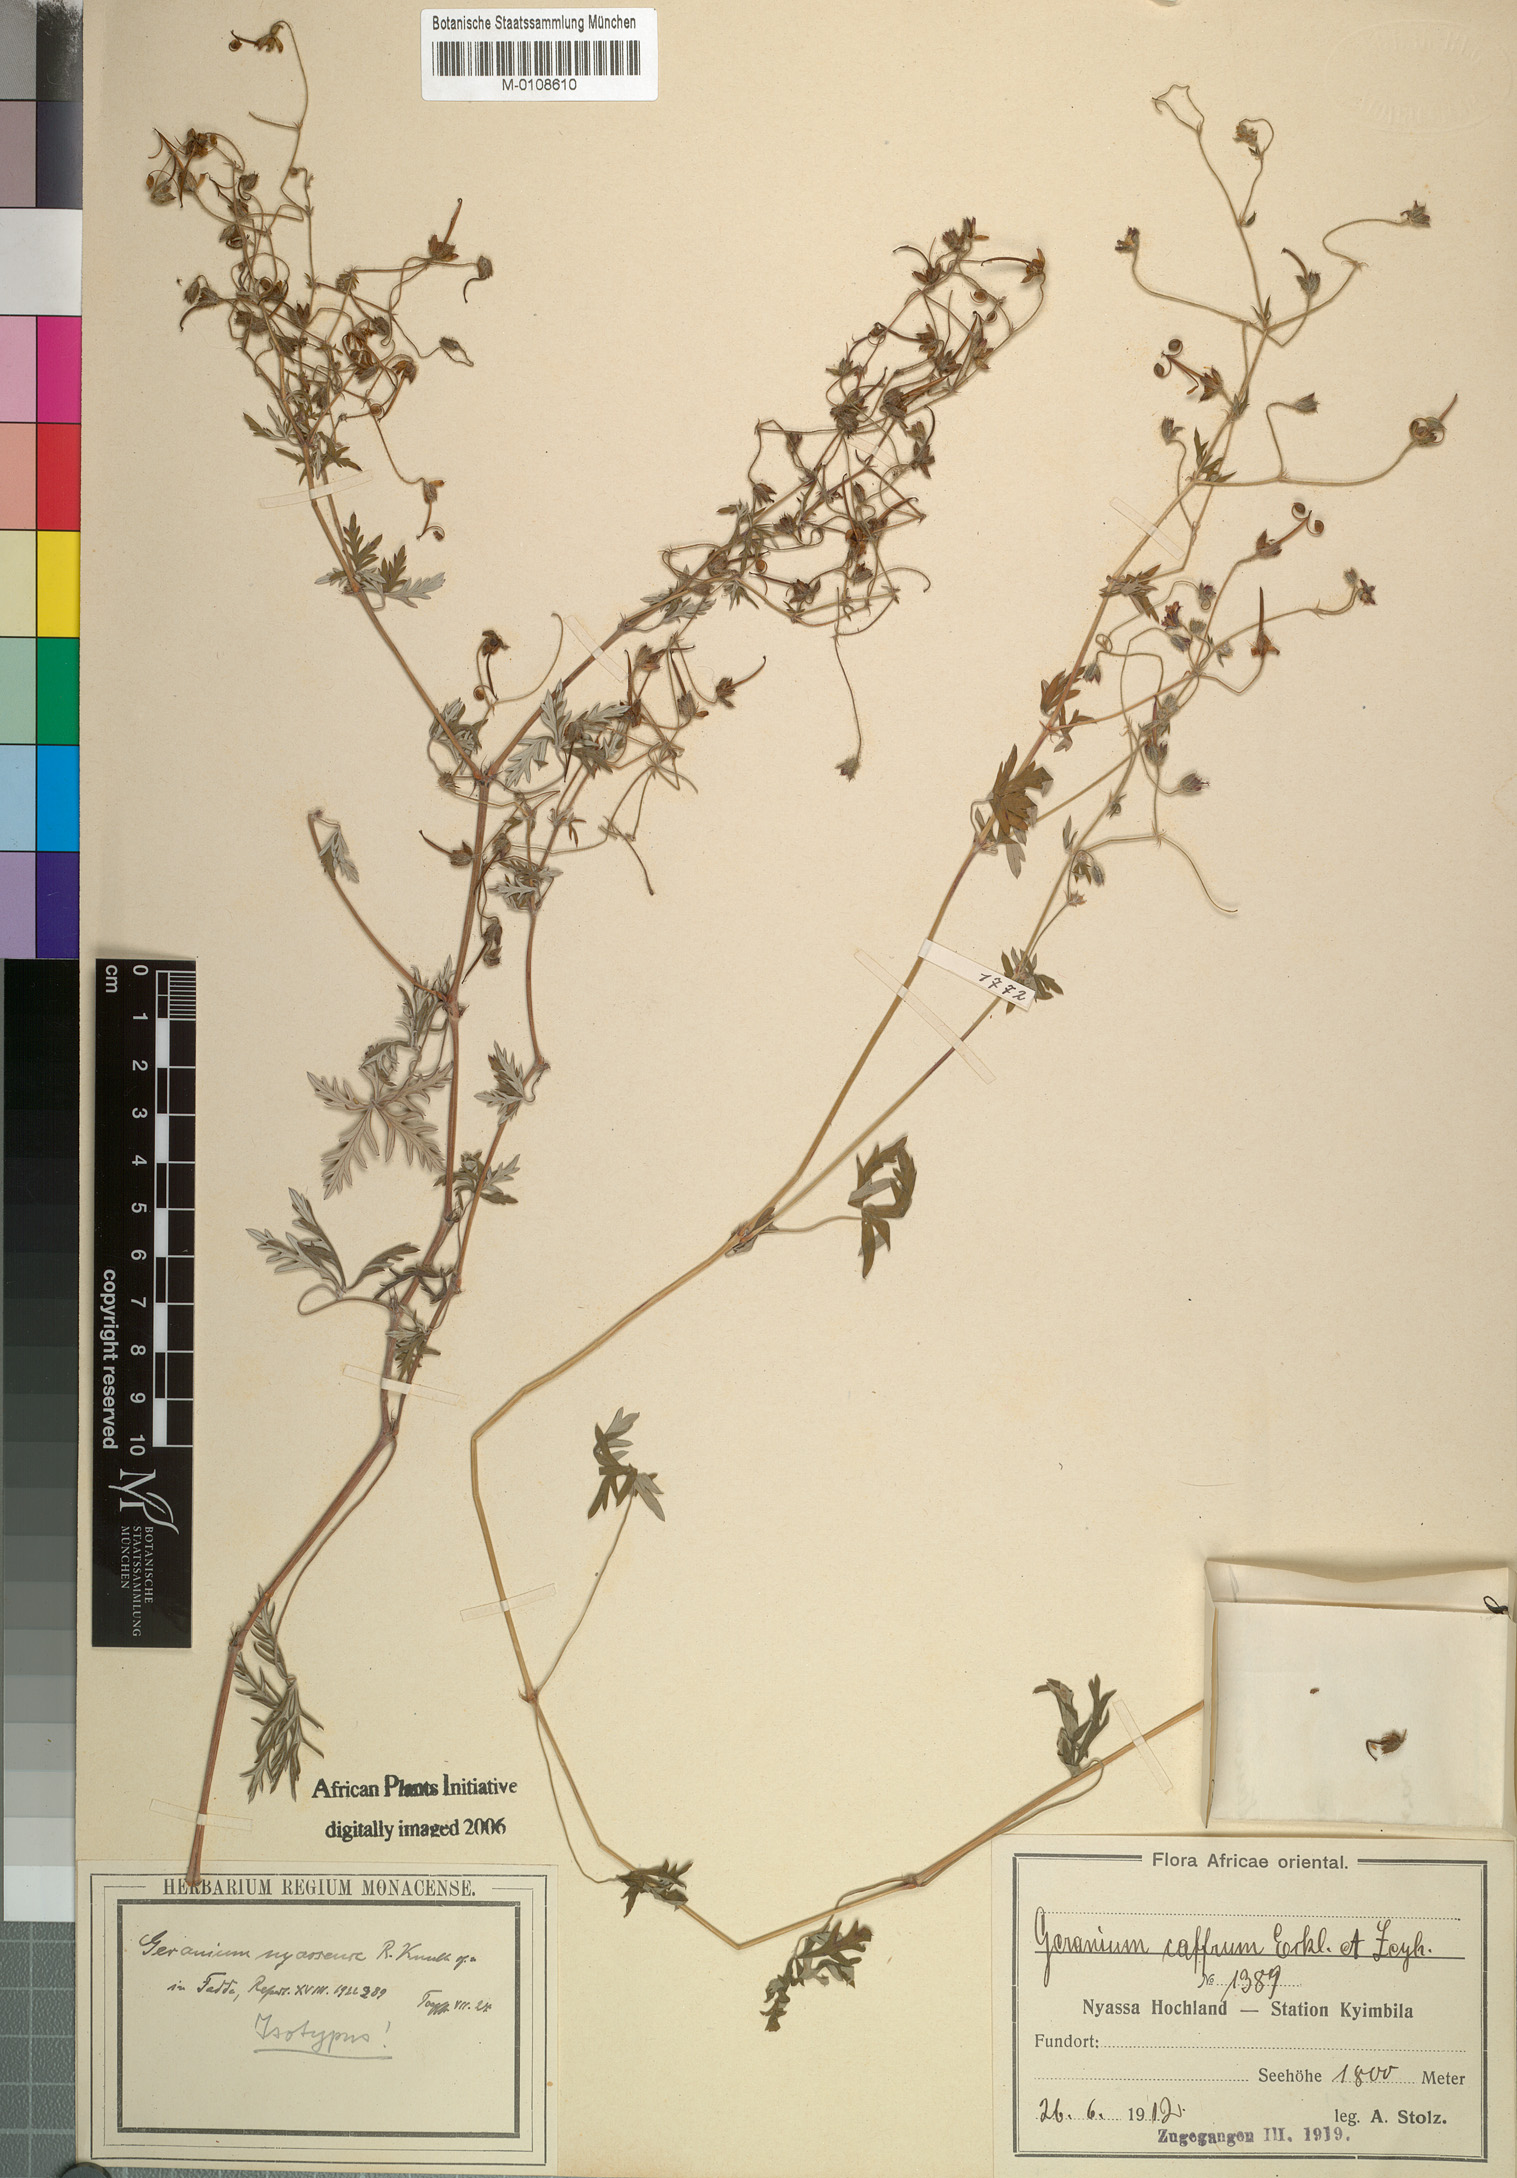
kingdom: Plantae
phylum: Tracheophyta
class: Magnoliopsida
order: Geraniales
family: Geraniaceae
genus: Geranium
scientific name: Geranium nyassense
